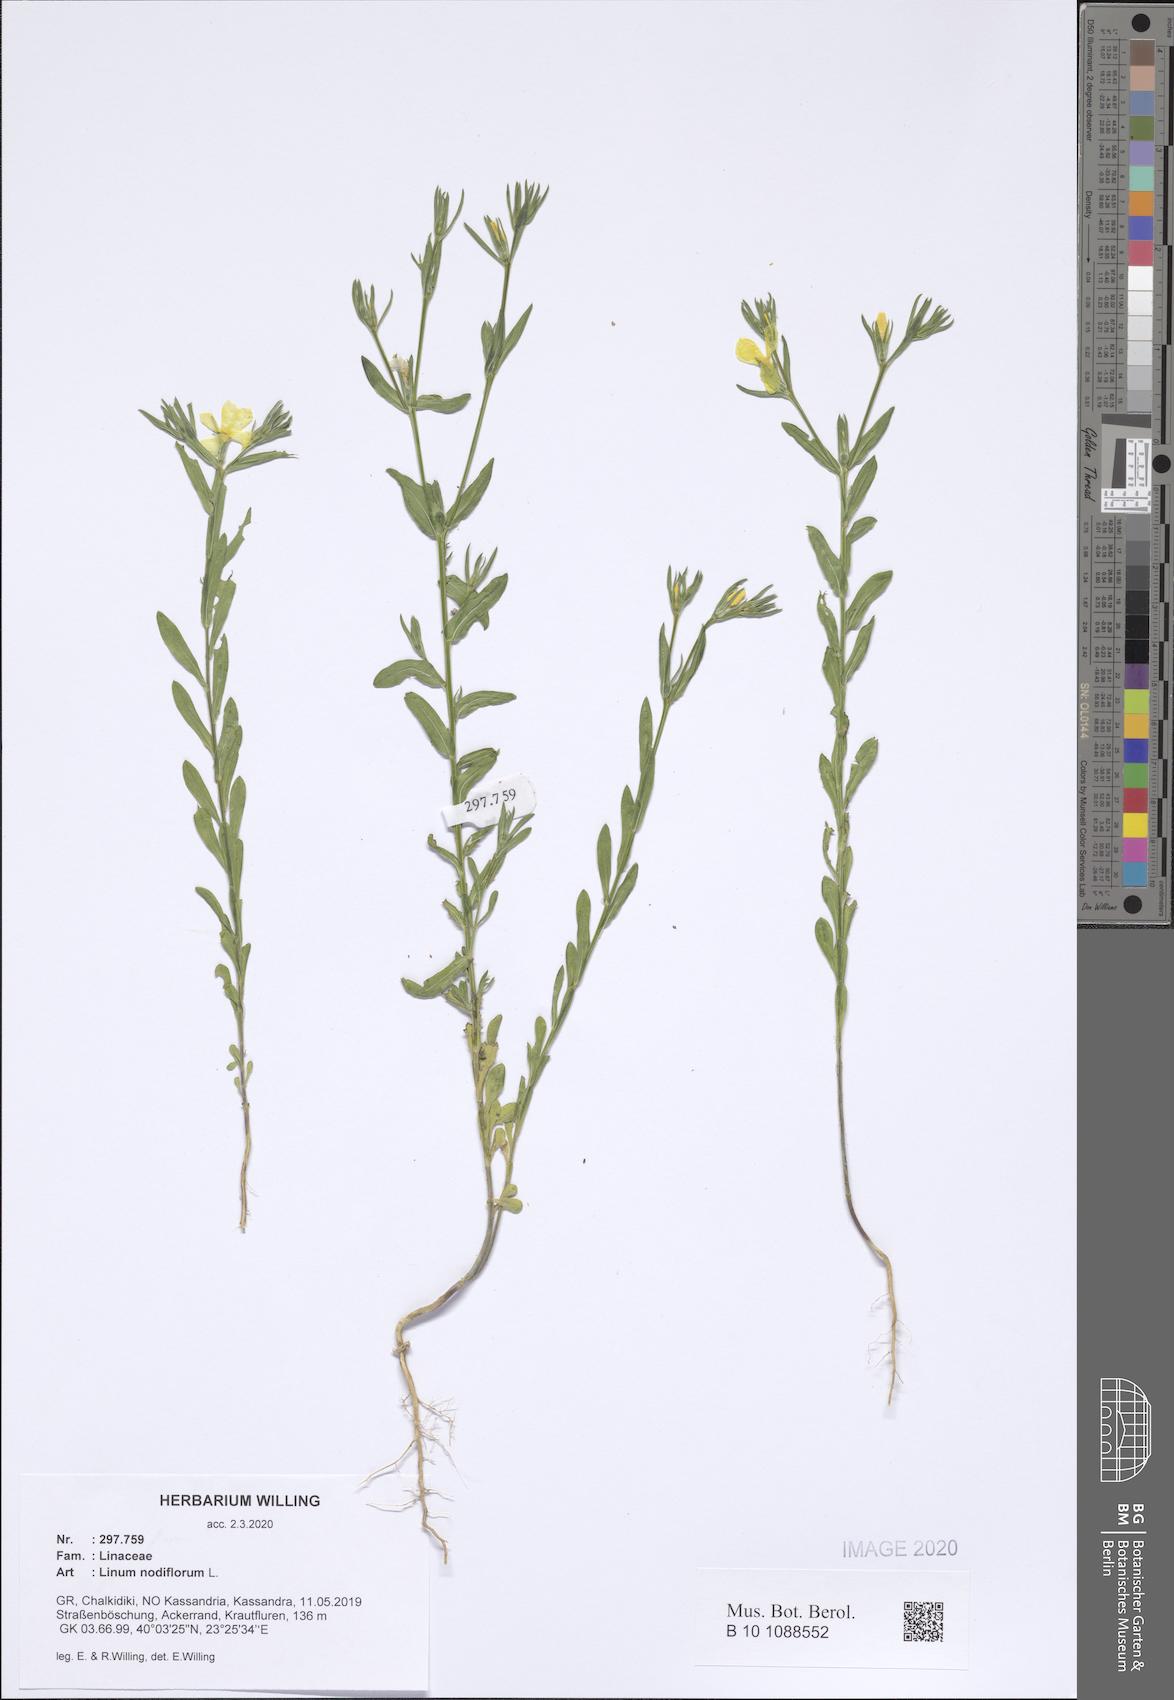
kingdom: Plantae
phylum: Tracheophyta
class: Magnoliopsida
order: Malpighiales
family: Linaceae
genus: Linum
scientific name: Linum nodiflorum
